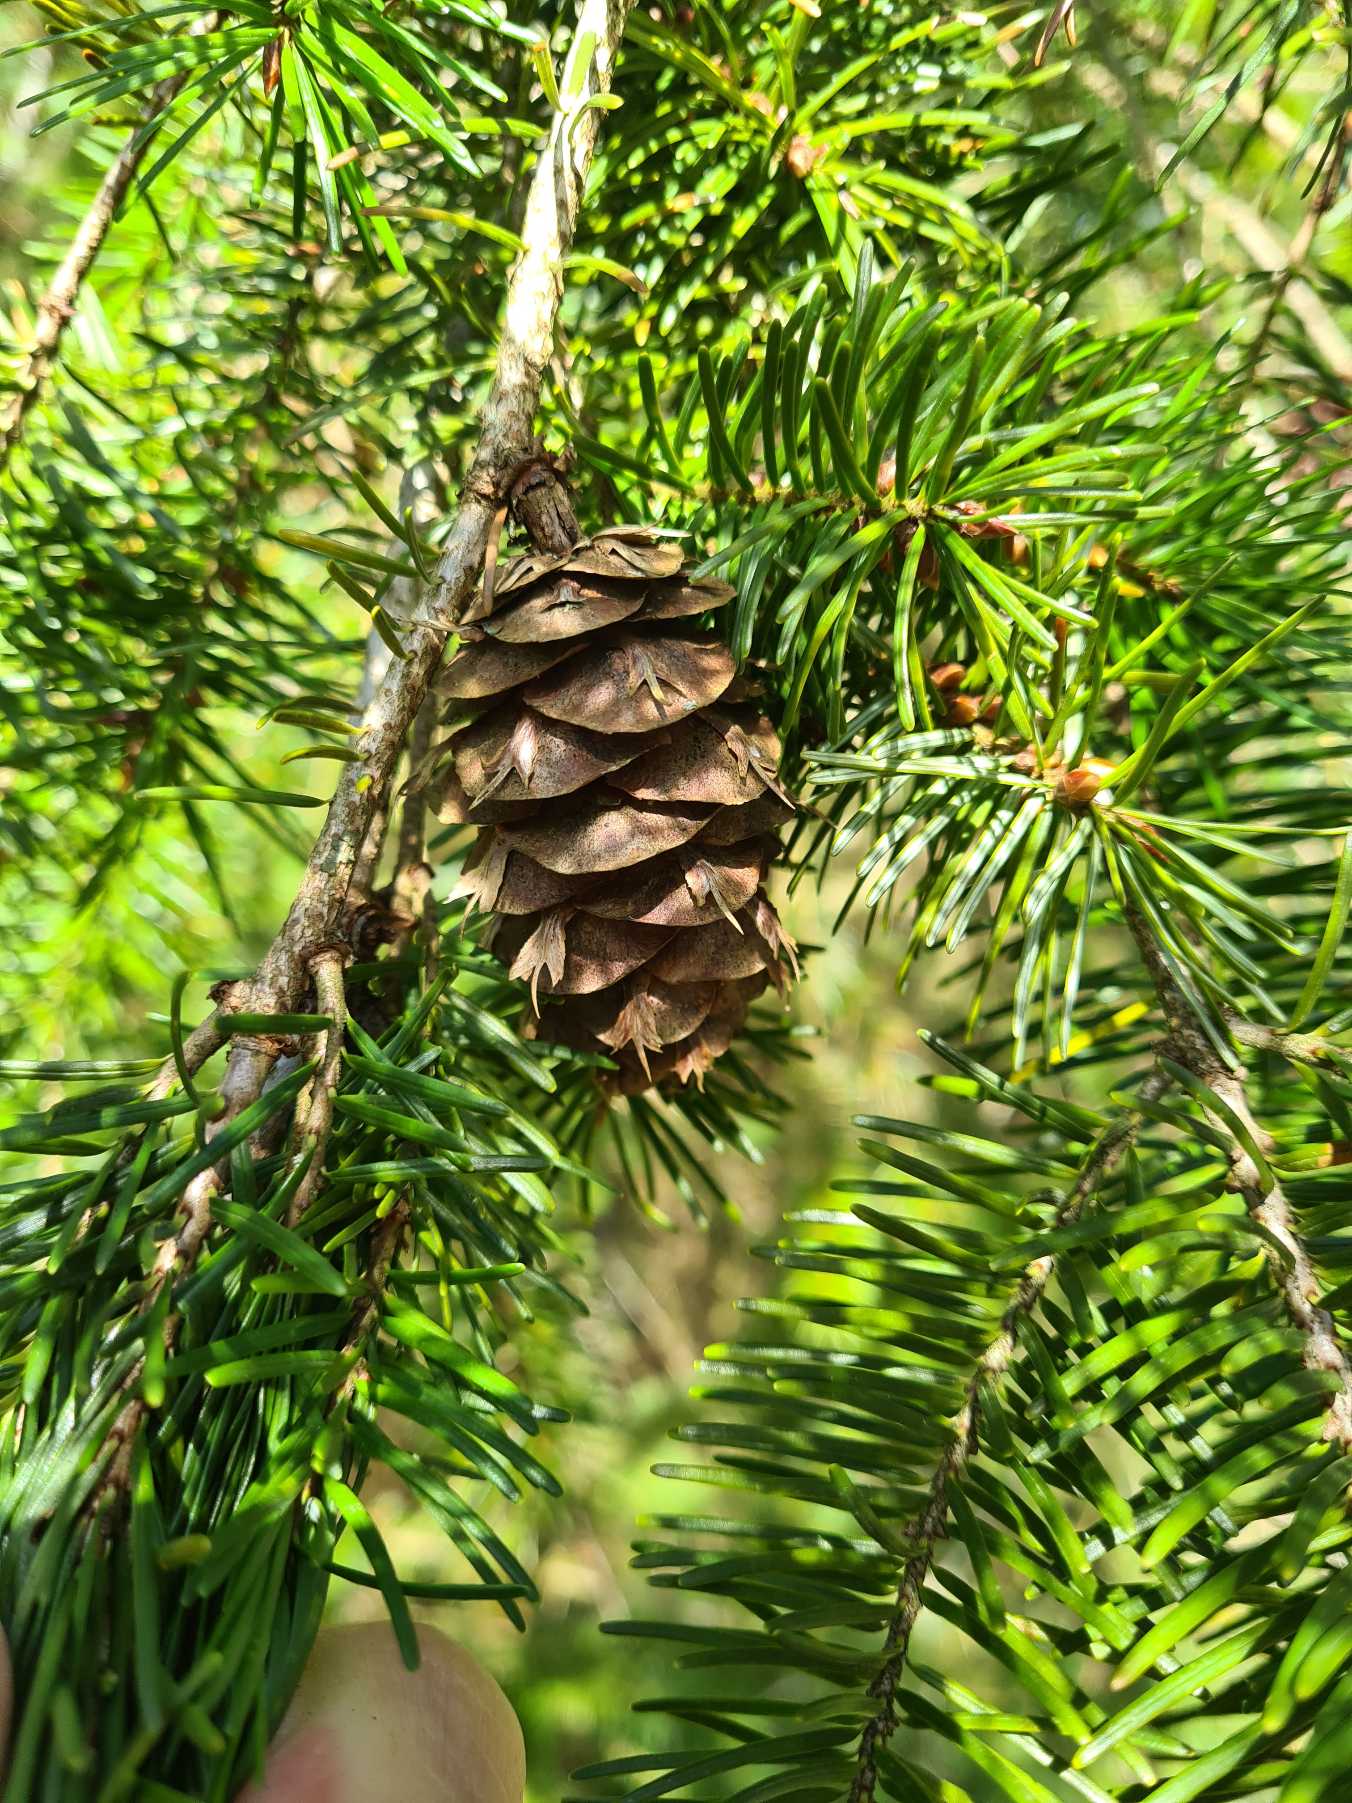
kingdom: Plantae
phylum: Tracheophyta
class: Pinopsida
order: Pinales
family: Pinaceae
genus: Pseudotsuga
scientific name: Pseudotsuga menziesii
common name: Douglasgran
